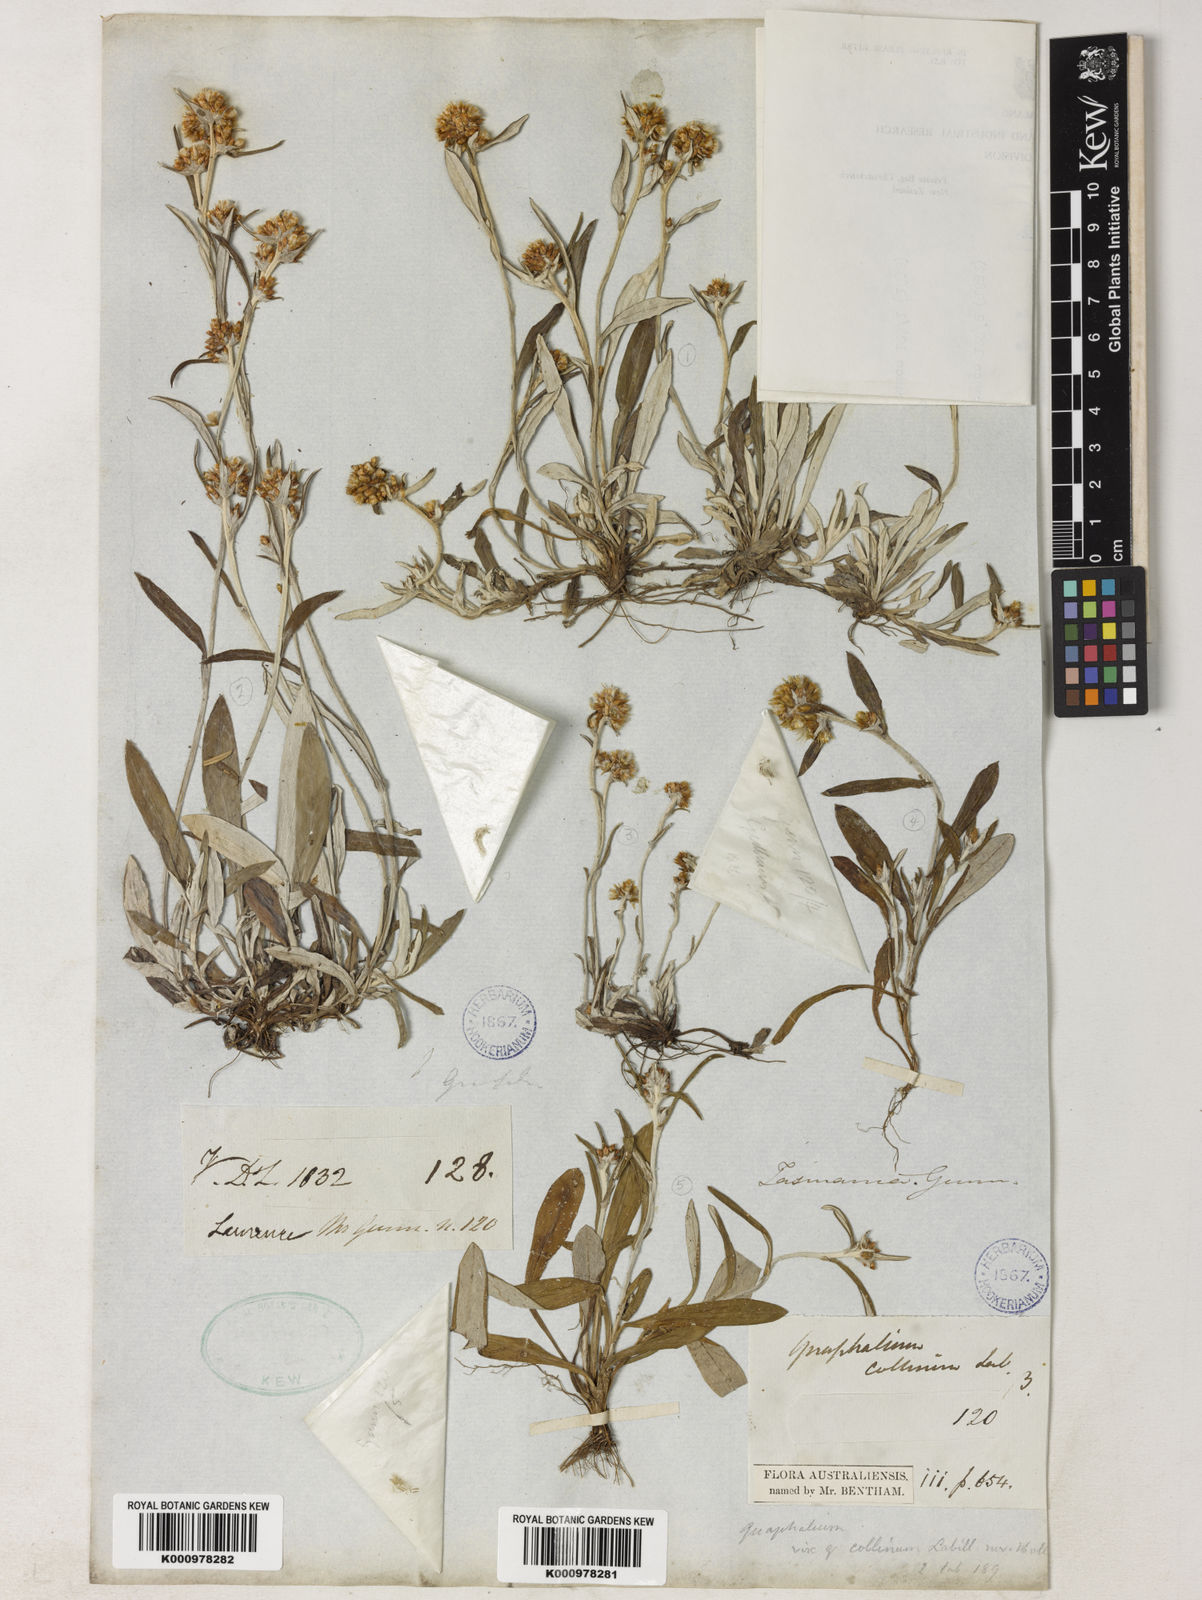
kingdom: Plantae
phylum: Tracheophyta
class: Magnoliopsida
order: Asterales
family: Asteraceae
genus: Euchiton
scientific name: Euchiton gymnocephalus
